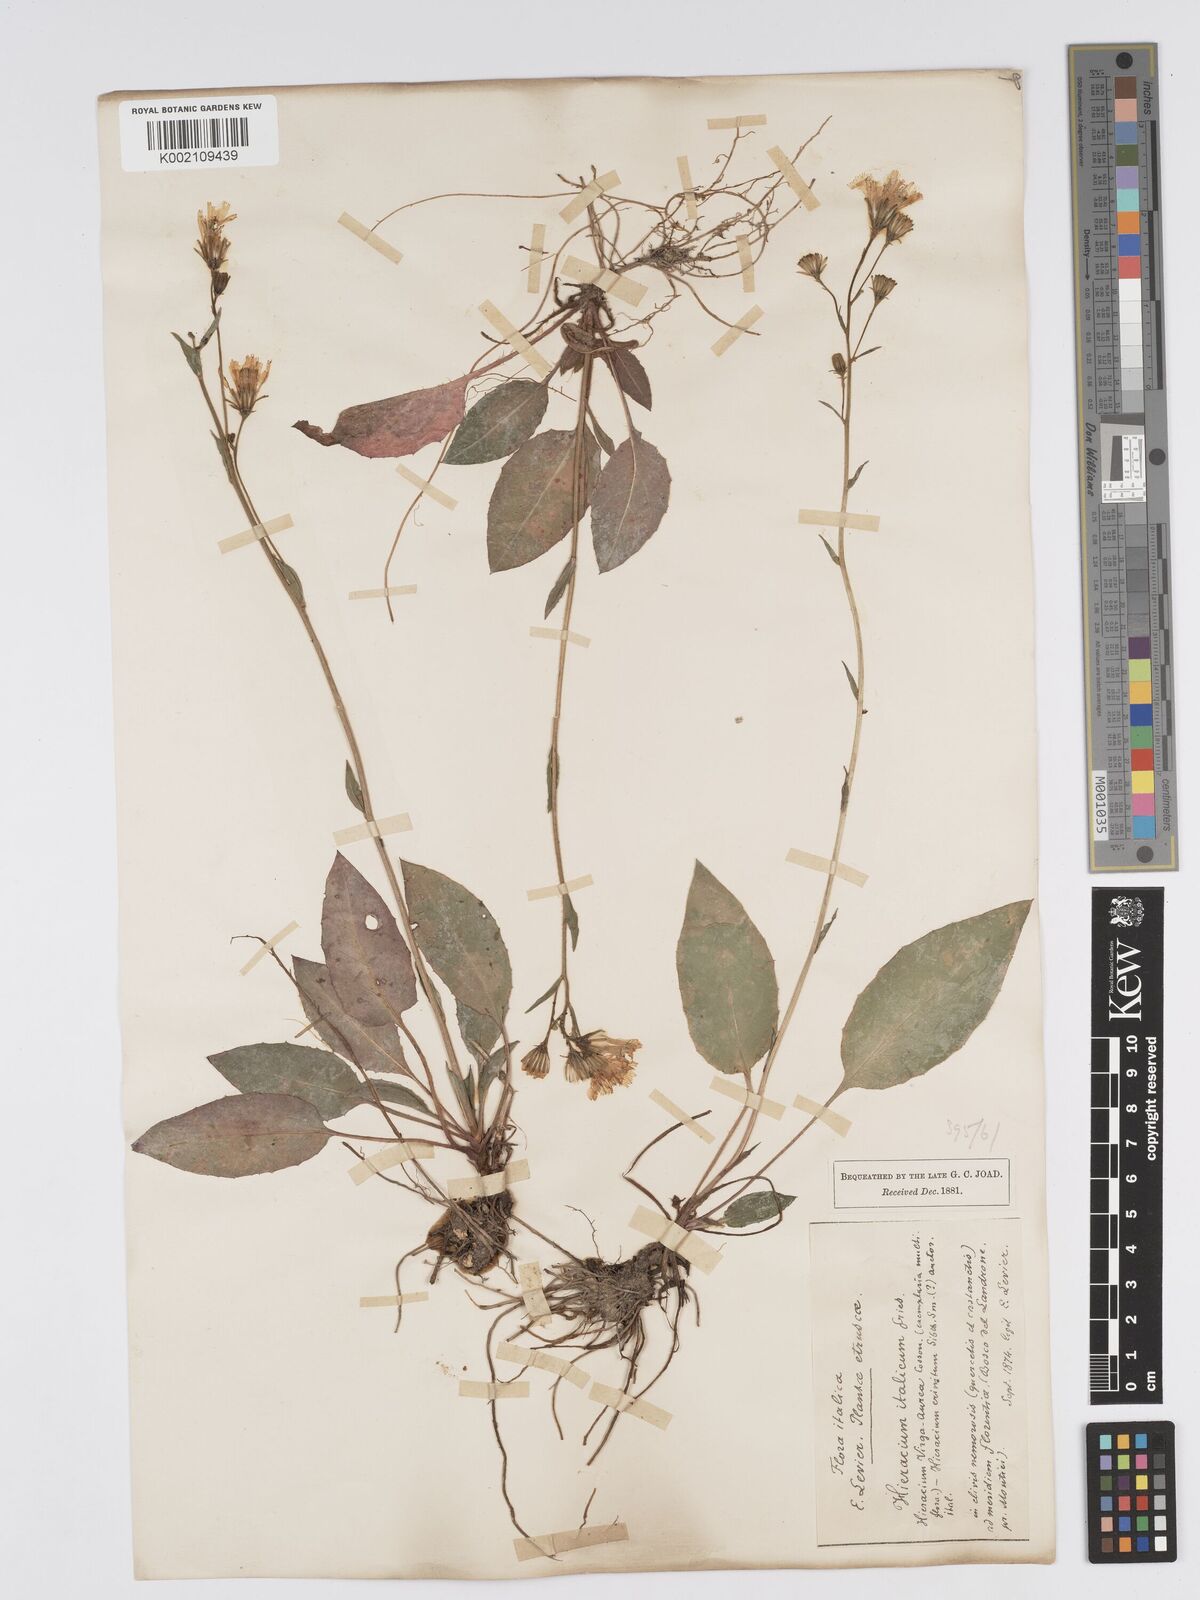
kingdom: Plantae
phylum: Tracheophyta
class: Magnoliopsida
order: Asterales
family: Asteraceae
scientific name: Asteraceae
